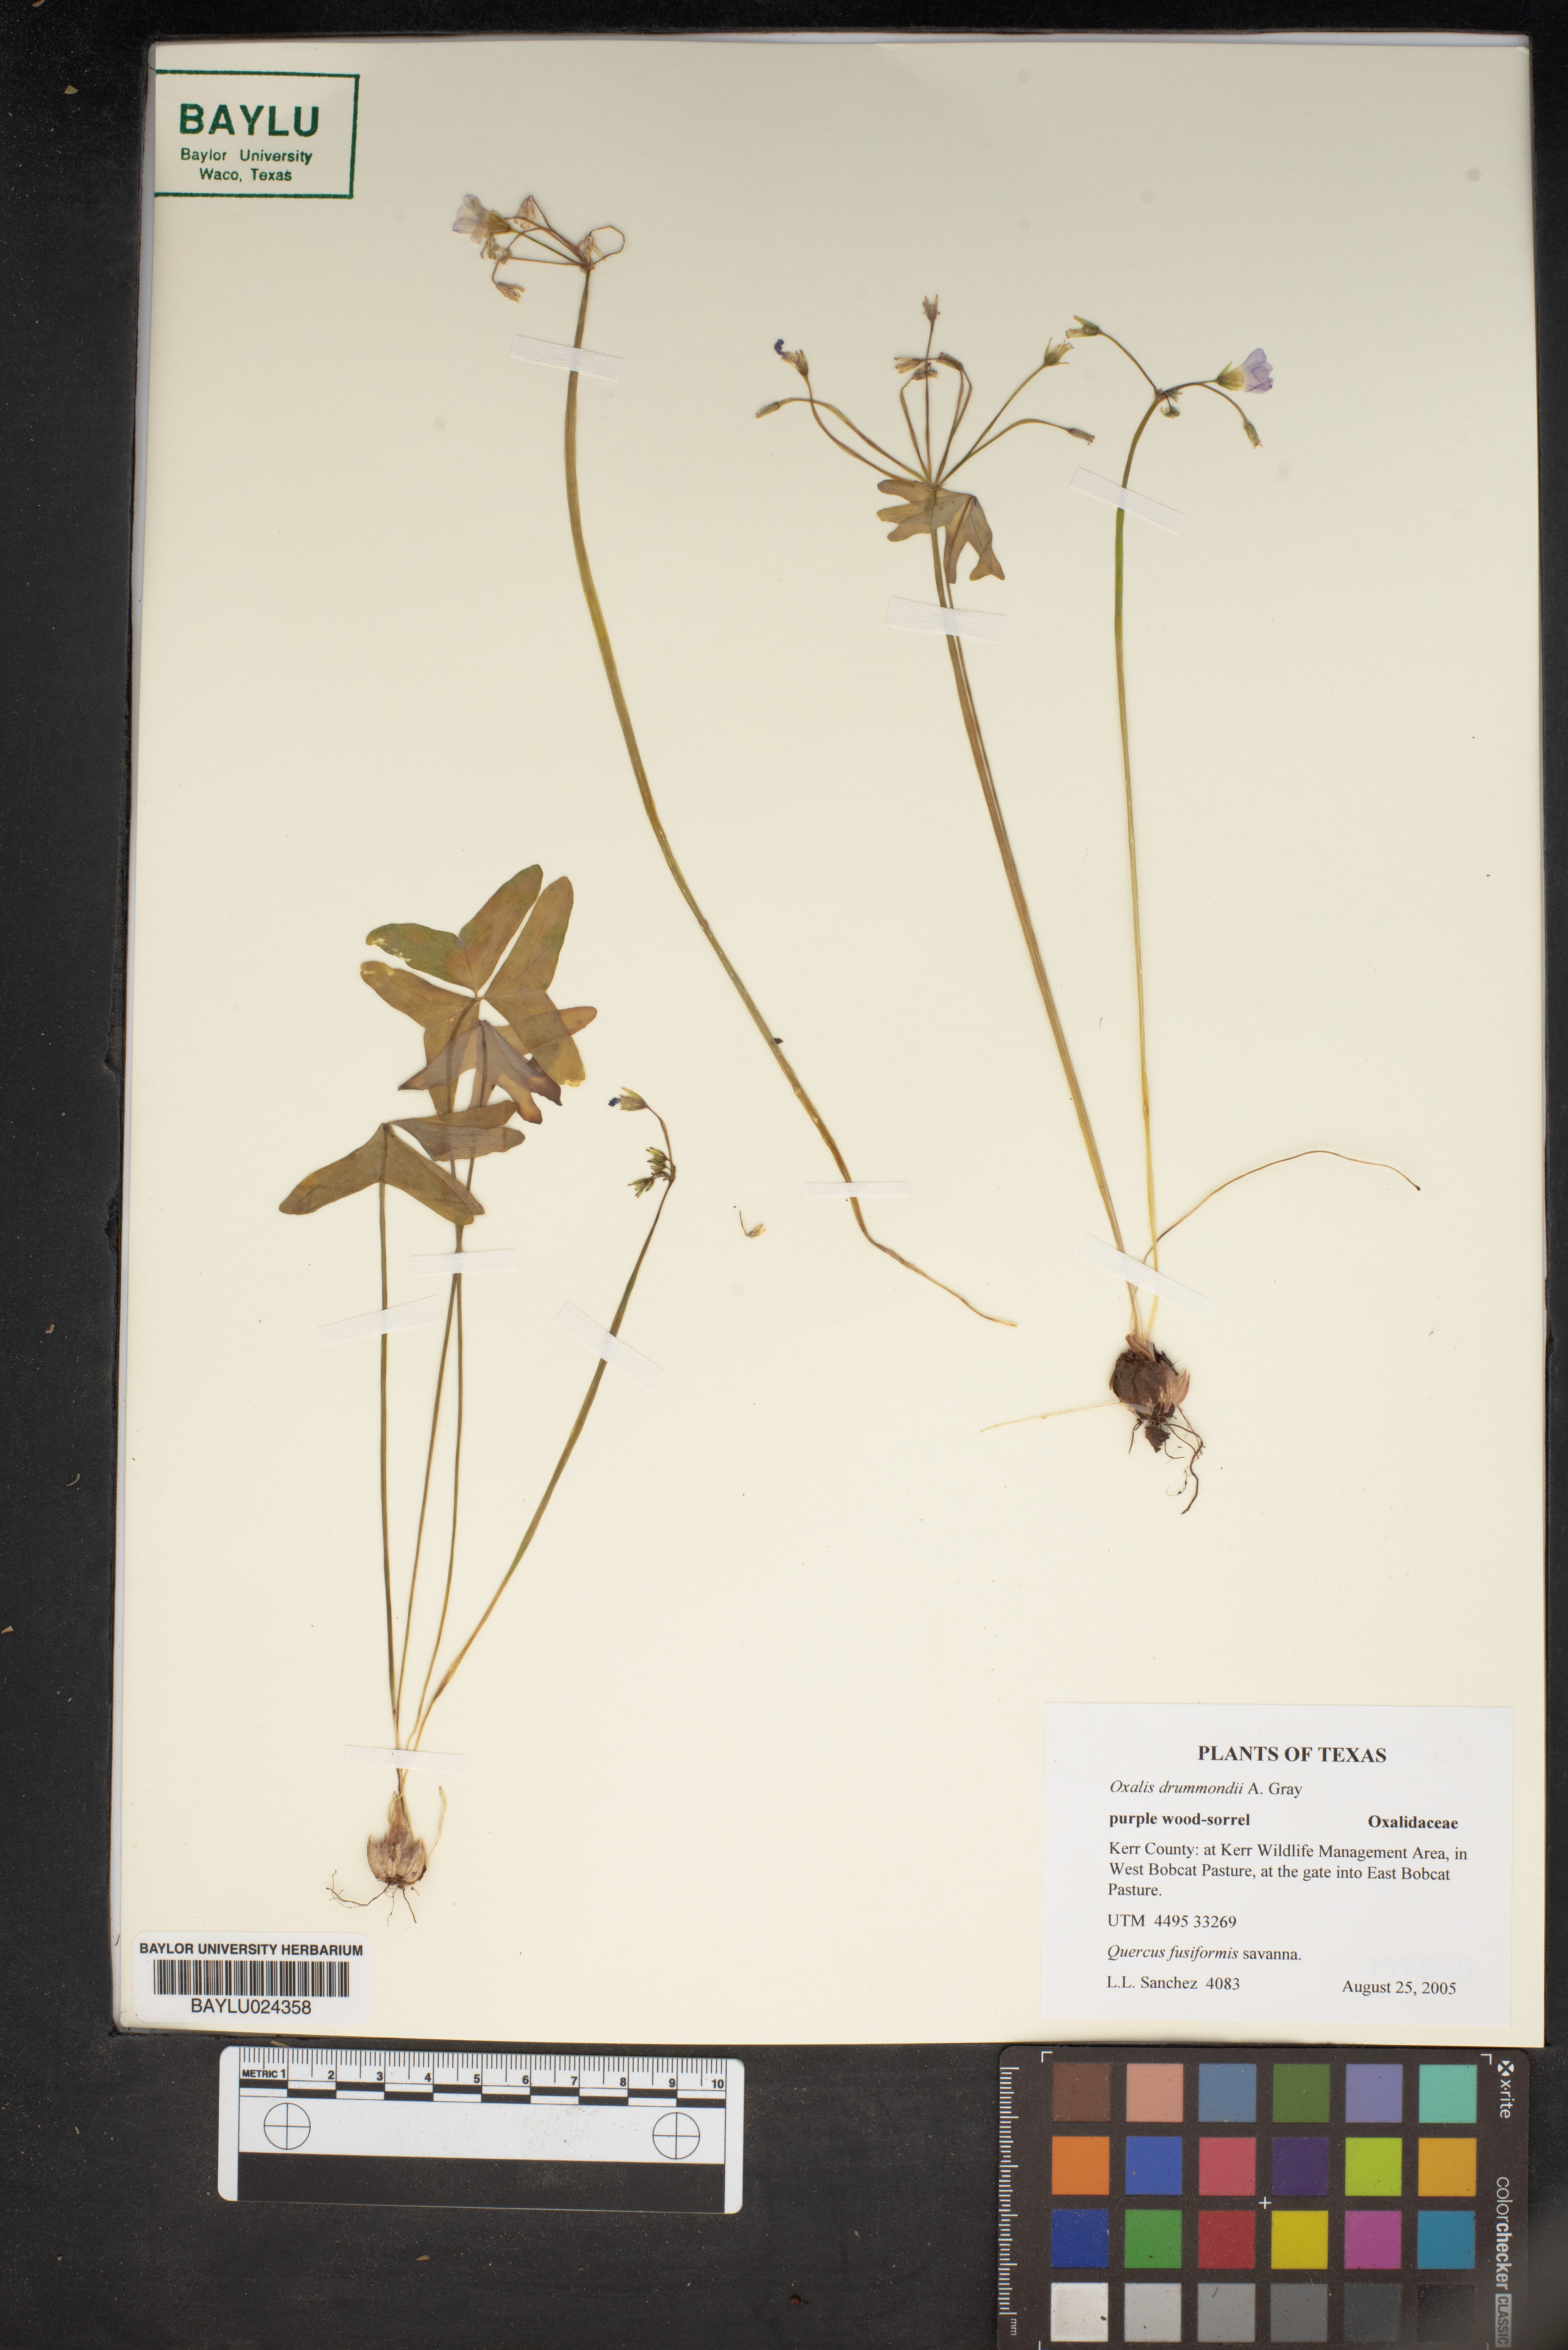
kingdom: Plantae
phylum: Tracheophyta
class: Magnoliopsida
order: Oxalidales
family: Oxalidaceae
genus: Oxalis
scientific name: Oxalis drummondii
